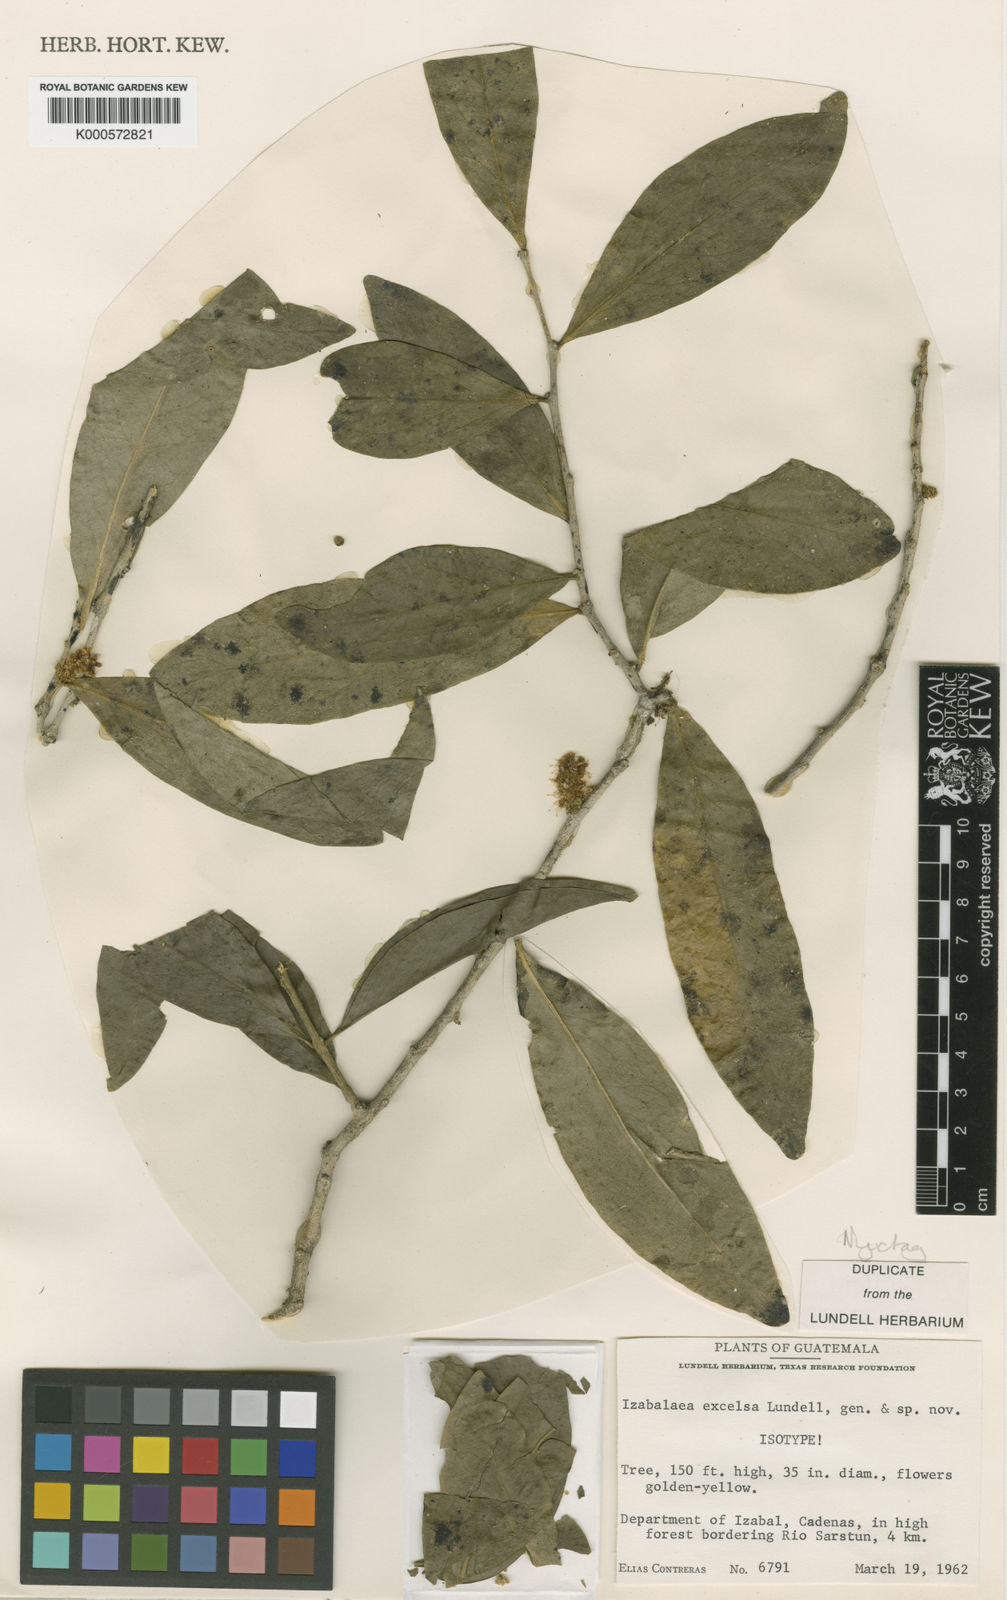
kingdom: Plantae
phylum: Tracheophyta
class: Magnoliopsida
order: Santalales
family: Opiliaceae
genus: Agonandra
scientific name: Agonandra goldbergiana
